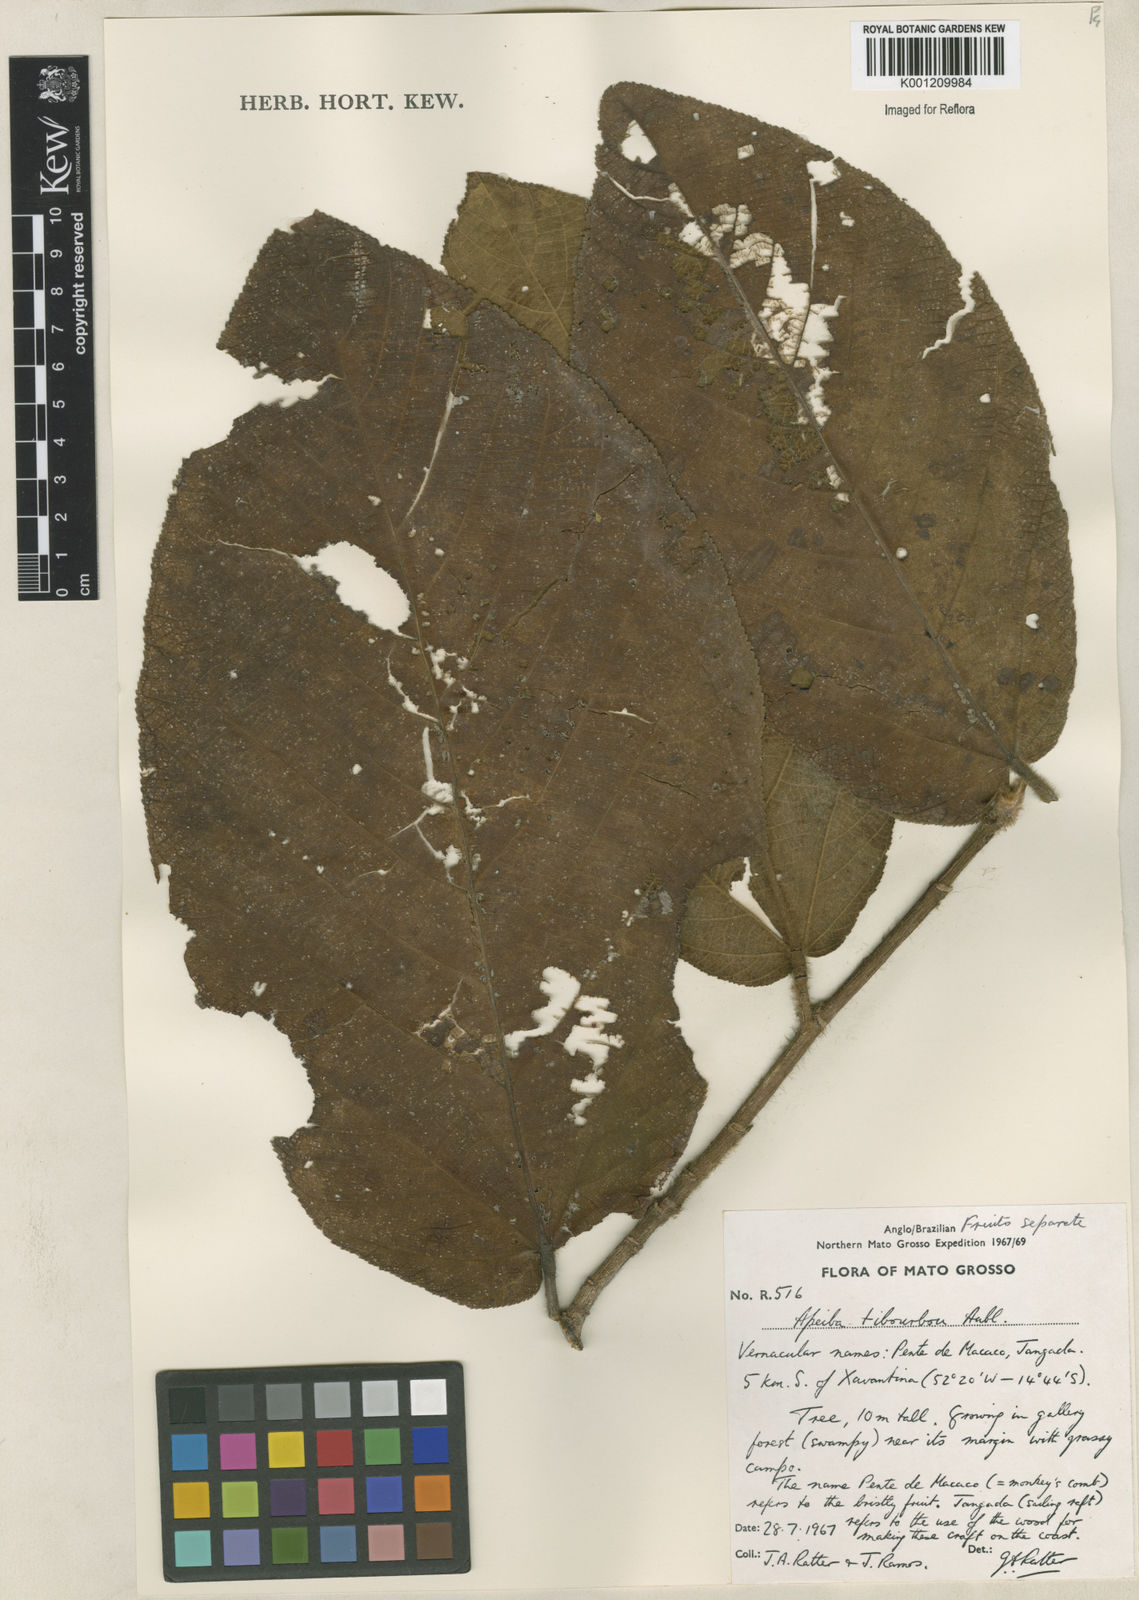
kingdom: Plantae
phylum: Tracheophyta
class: Magnoliopsida
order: Malvales
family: Malvaceae
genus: Apeiba
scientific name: Apeiba tibourbou
